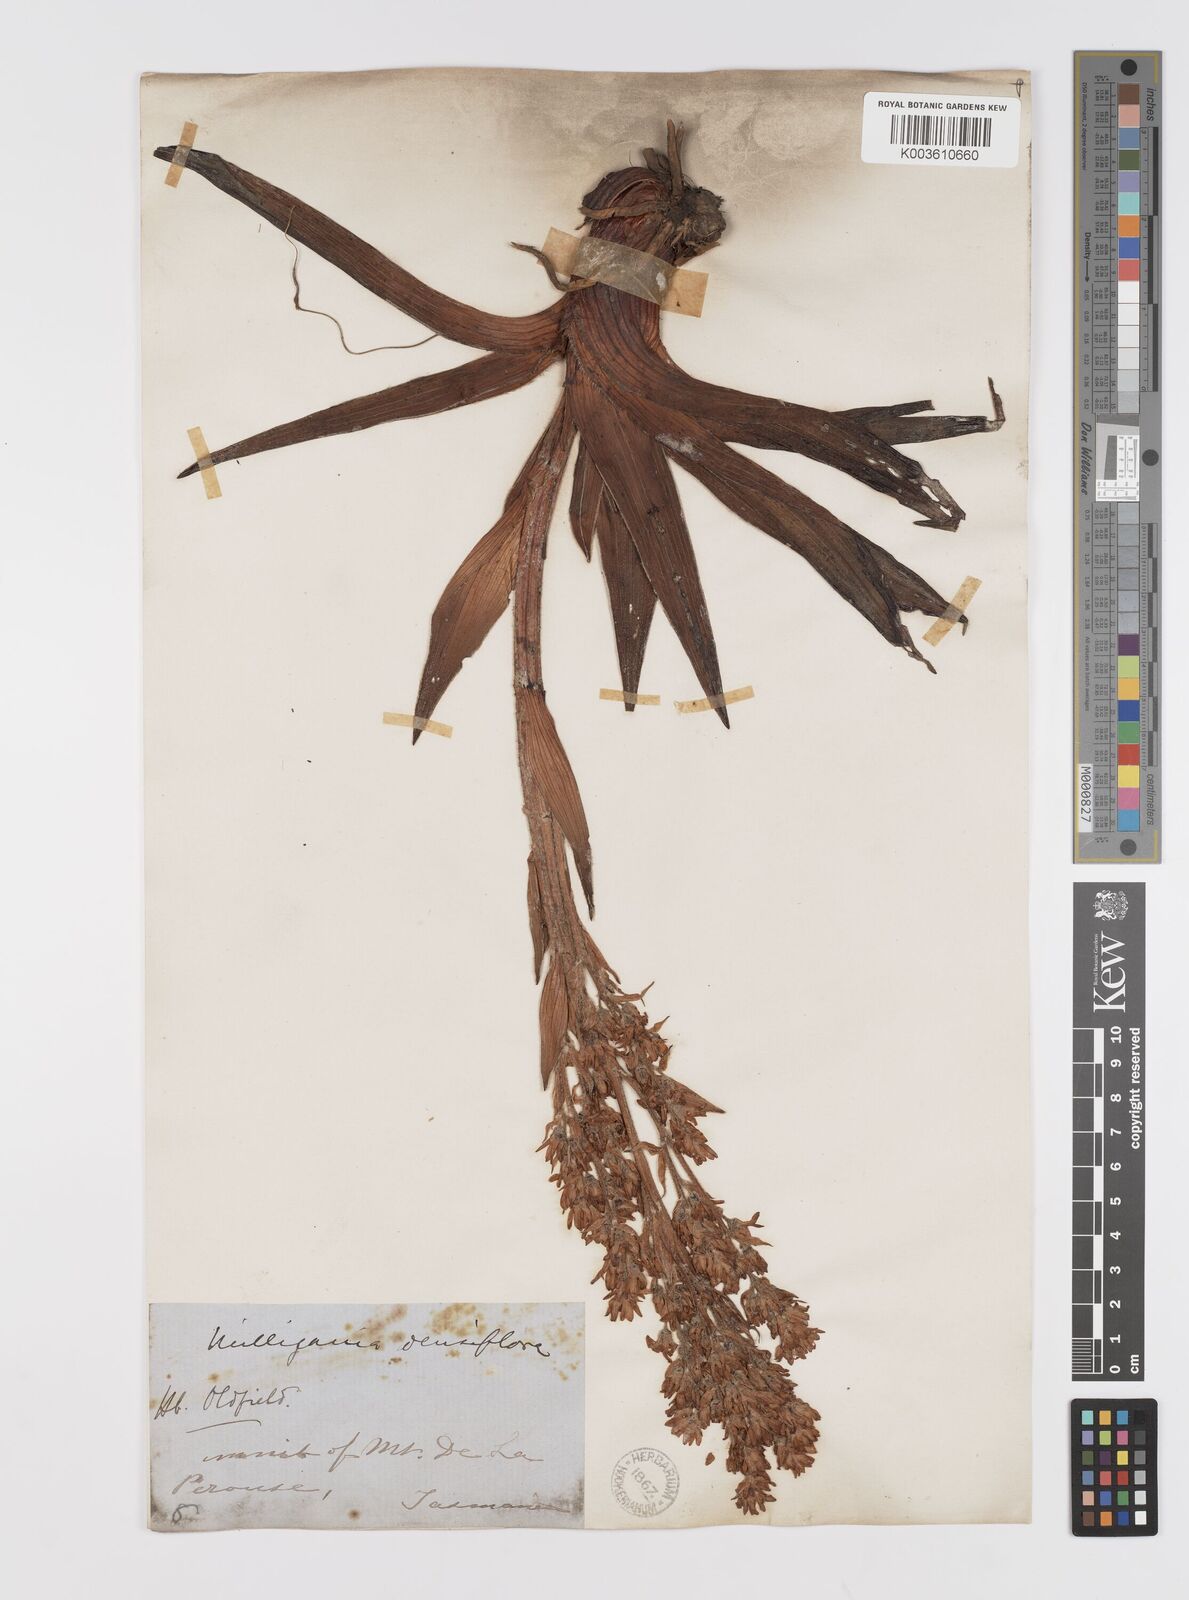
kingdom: Plantae
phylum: Tracheophyta
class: Liliopsida
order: Asparagales
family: Asteliaceae
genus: Milligania
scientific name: Milligania densiflora
